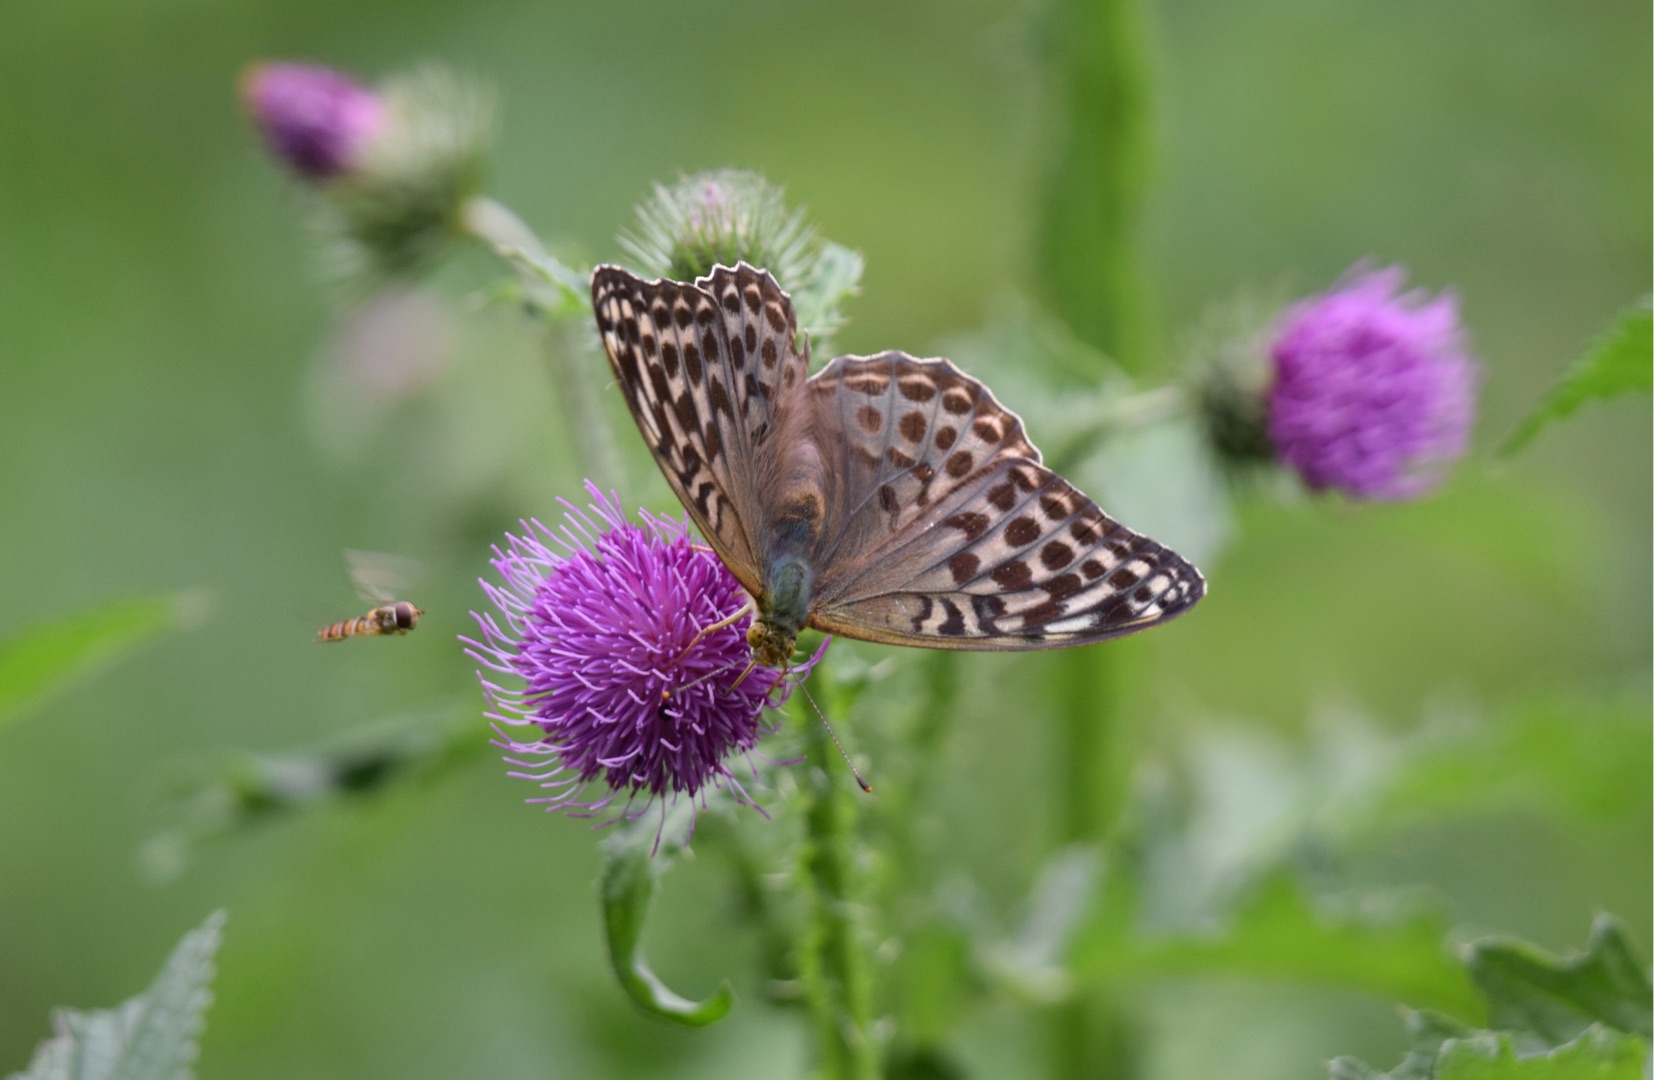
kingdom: Animalia
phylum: Arthropoda
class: Insecta
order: Lepidoptera
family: Nymphalidae
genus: Argynnis
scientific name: Argynnis paphia
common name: Kejserkåbe
